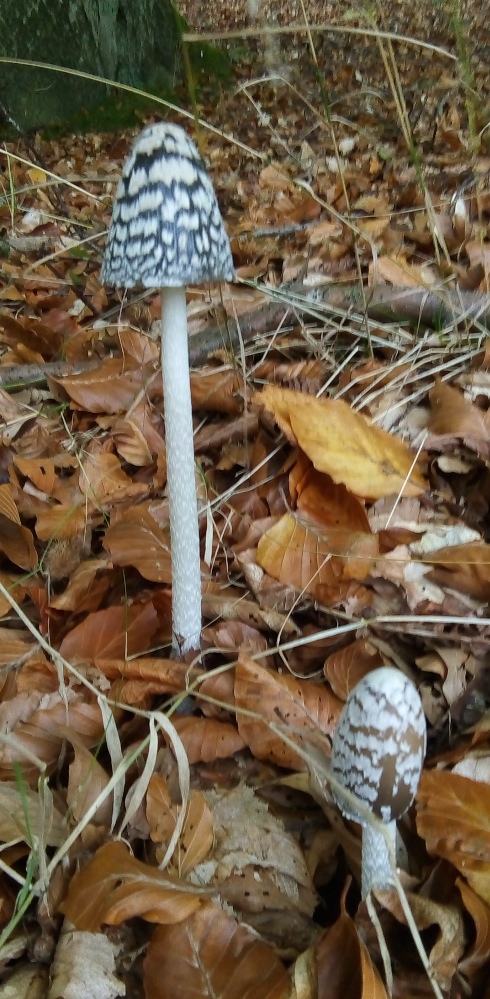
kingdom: Fungi
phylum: Basidiomycota
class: Agaricomycetes
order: Agaricales
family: Psathyrellaceae
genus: Coprinopsis
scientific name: Coprinopsis picacea
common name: skade-blækhat
